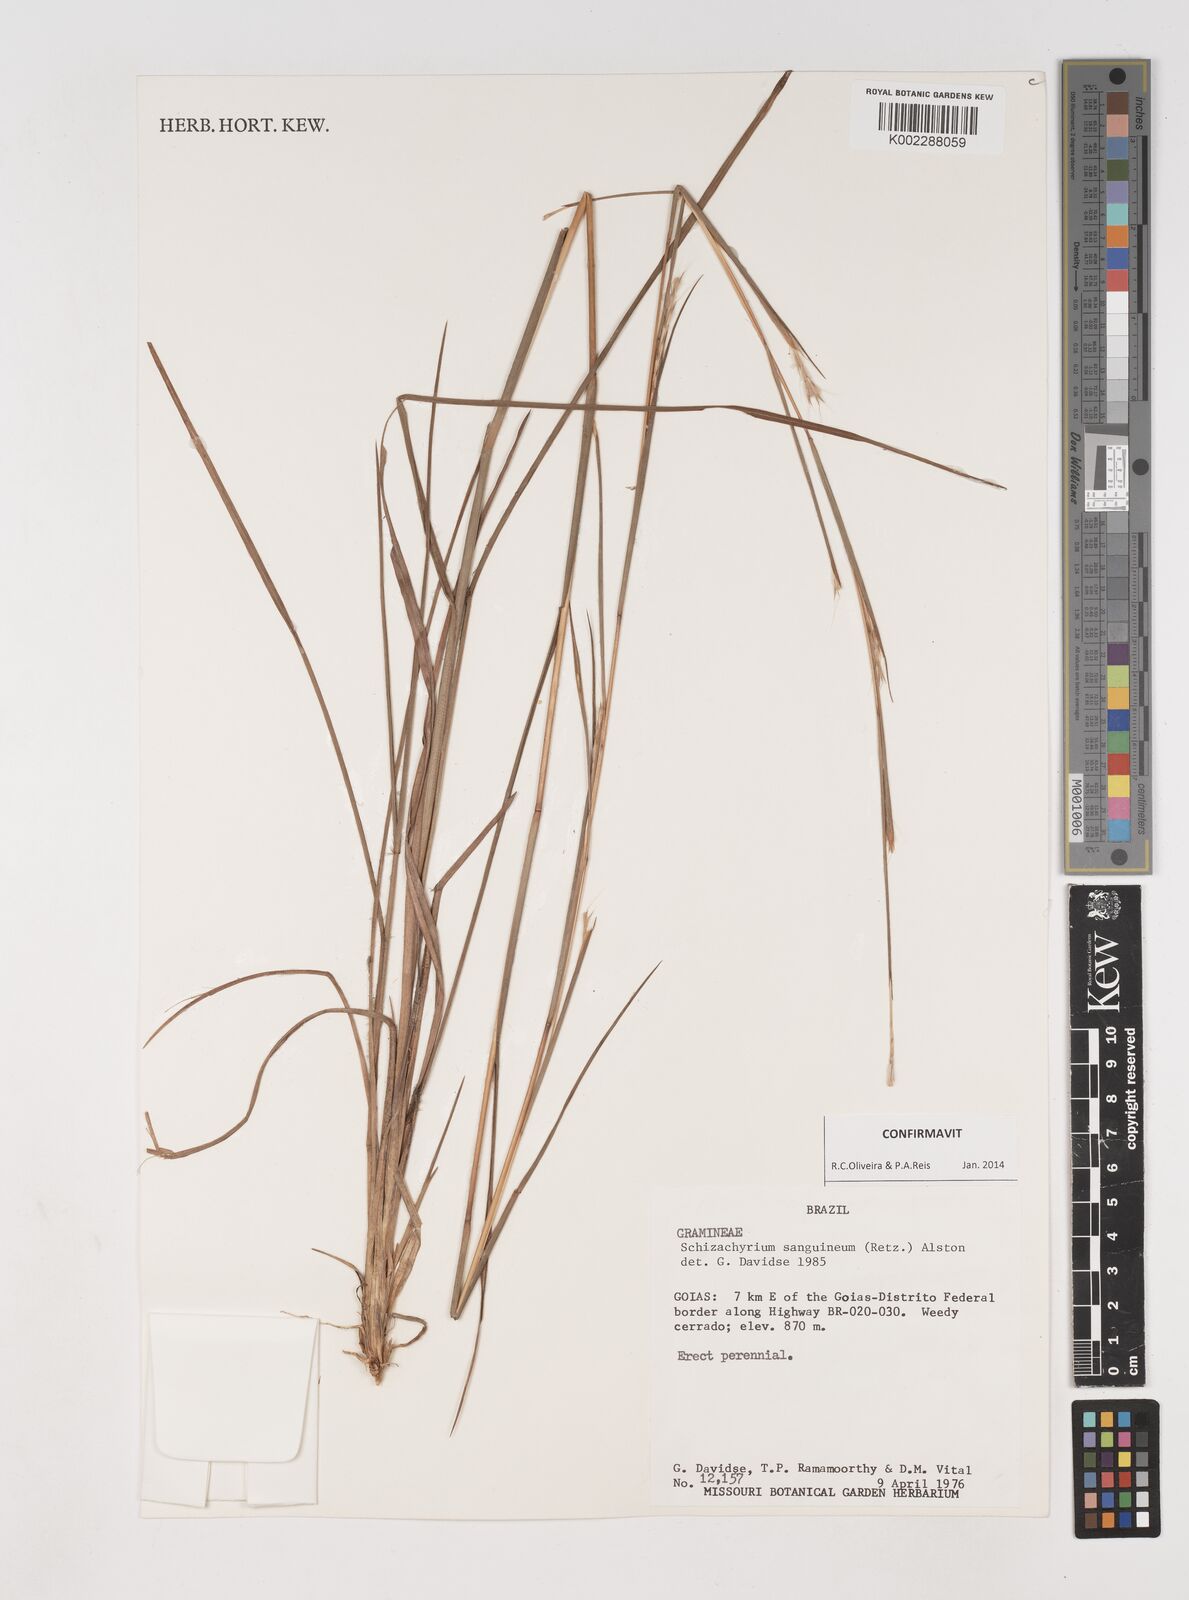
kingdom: Plantae
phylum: Tracheophyta
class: Liliopsida
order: Poales
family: Poaceae
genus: Schizachyrium
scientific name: Schizachyrium sanguineum
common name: Crimson bluestem
